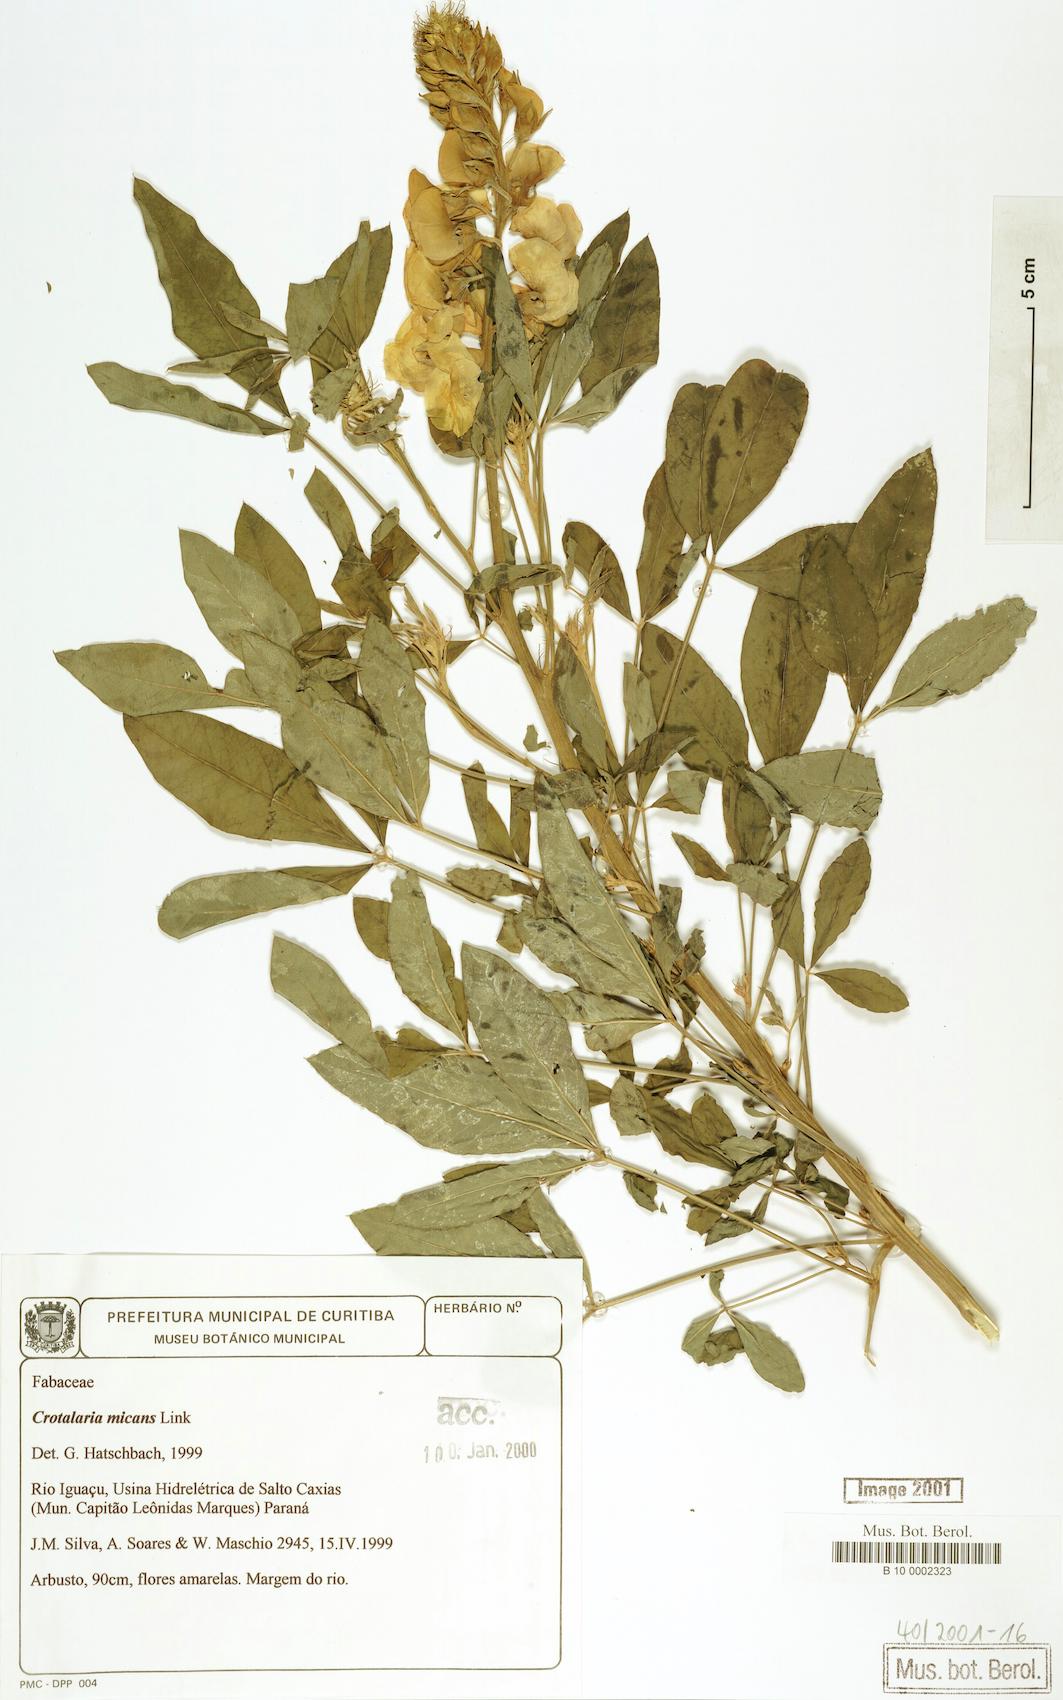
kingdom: Plantae
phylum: Tracheophyta
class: Magnoliopsida
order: Fabales
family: Fabaceae
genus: Crotalaria
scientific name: Crotalaria micans
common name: Caracas rattlebox
